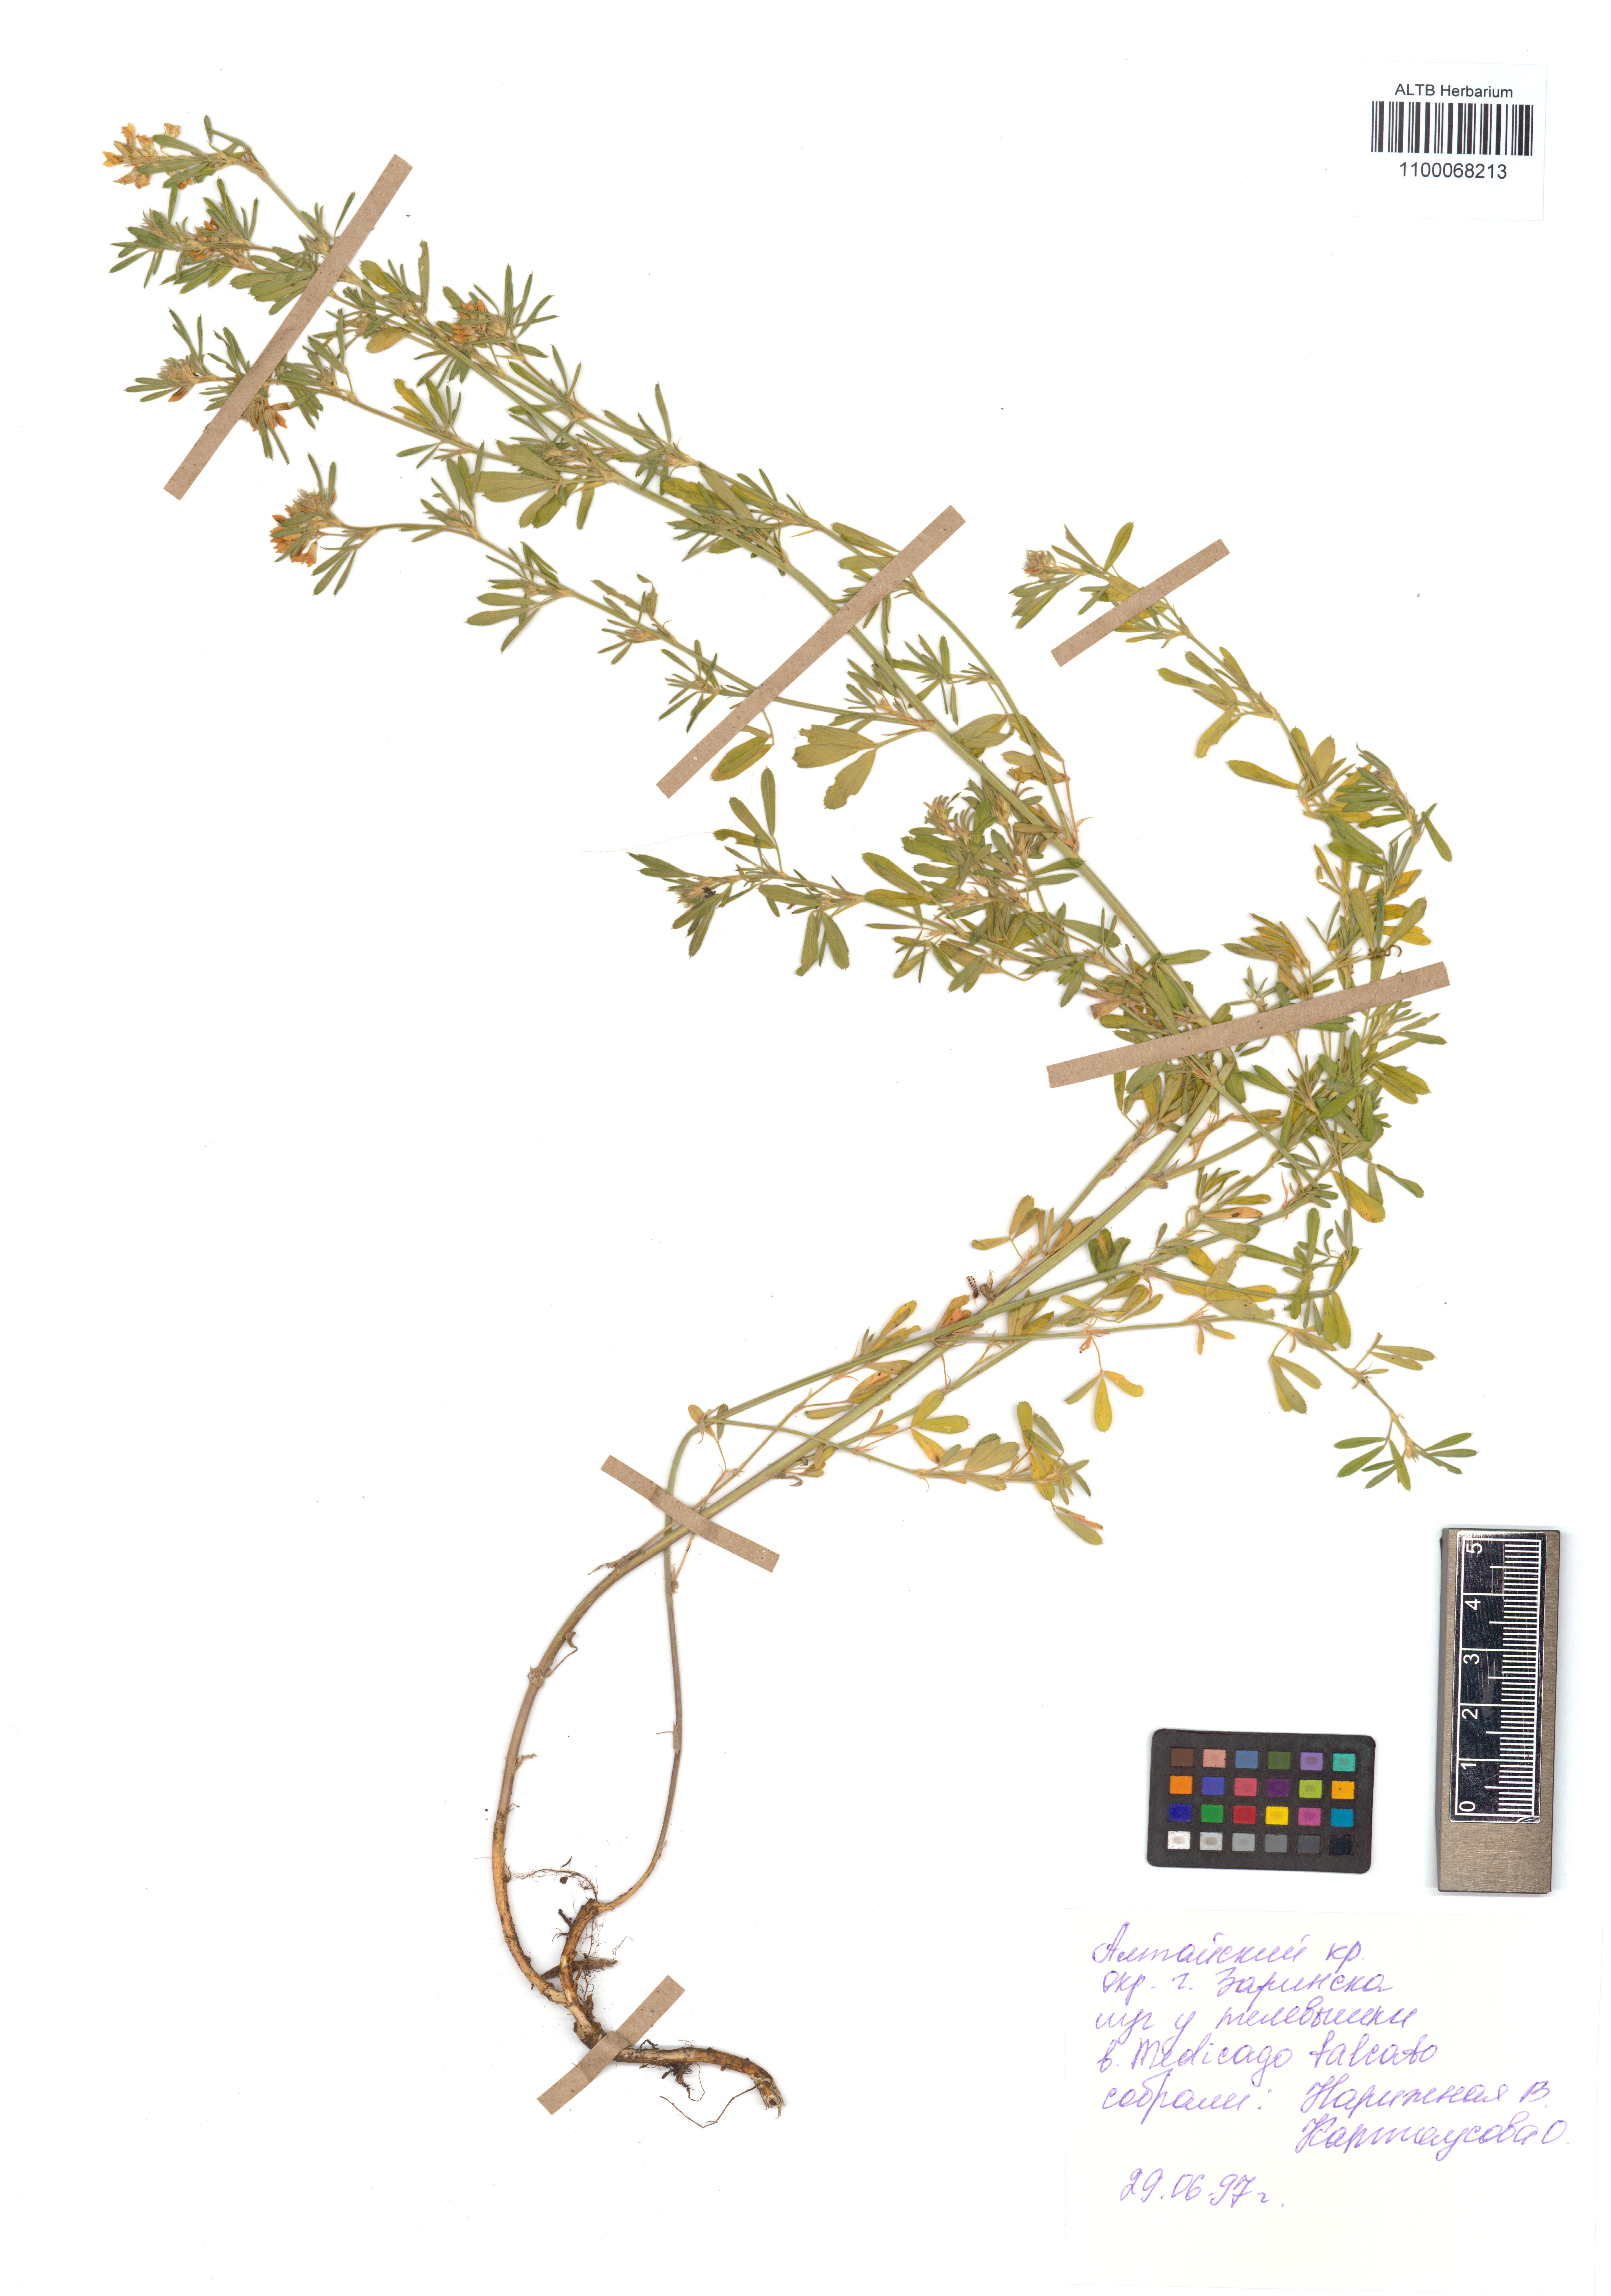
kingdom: Plantae
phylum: Tracheophyta
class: Magnoliopsida
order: Fabales
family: Fabaceae
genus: Medicago
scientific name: Medicago falcata
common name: Sickle medick
